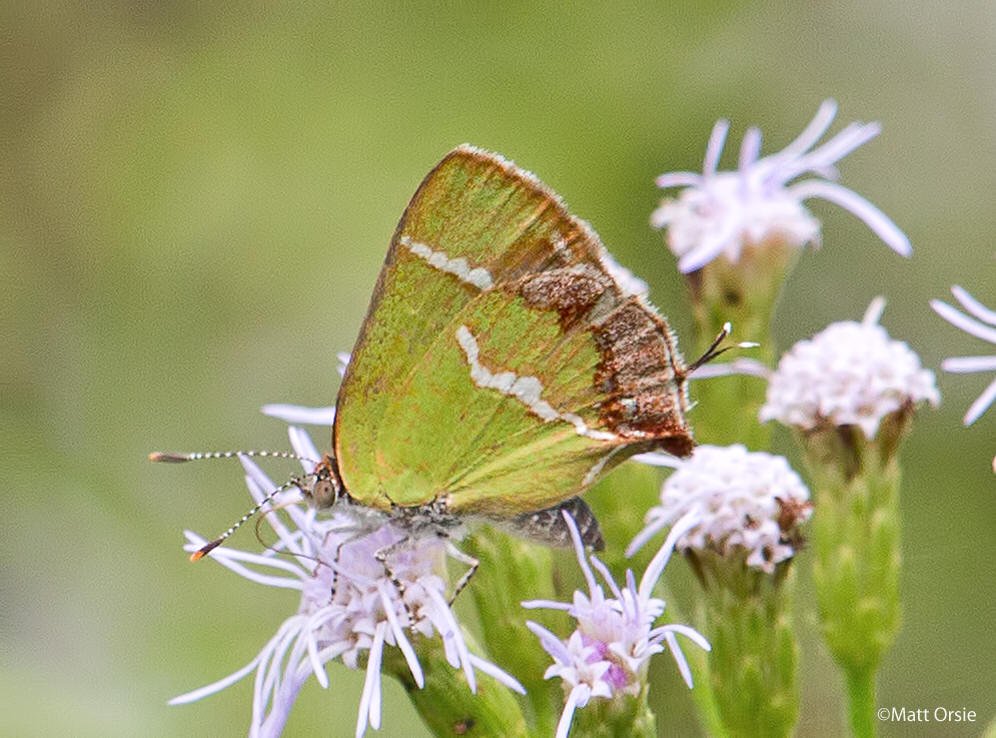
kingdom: Animalia
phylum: Arthropoda
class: Insecta
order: Lepidoptera
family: Lycaenidae
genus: Chlorostrymon
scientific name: Chlorostrymon simaethis
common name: Silver-banded Hairstreak
